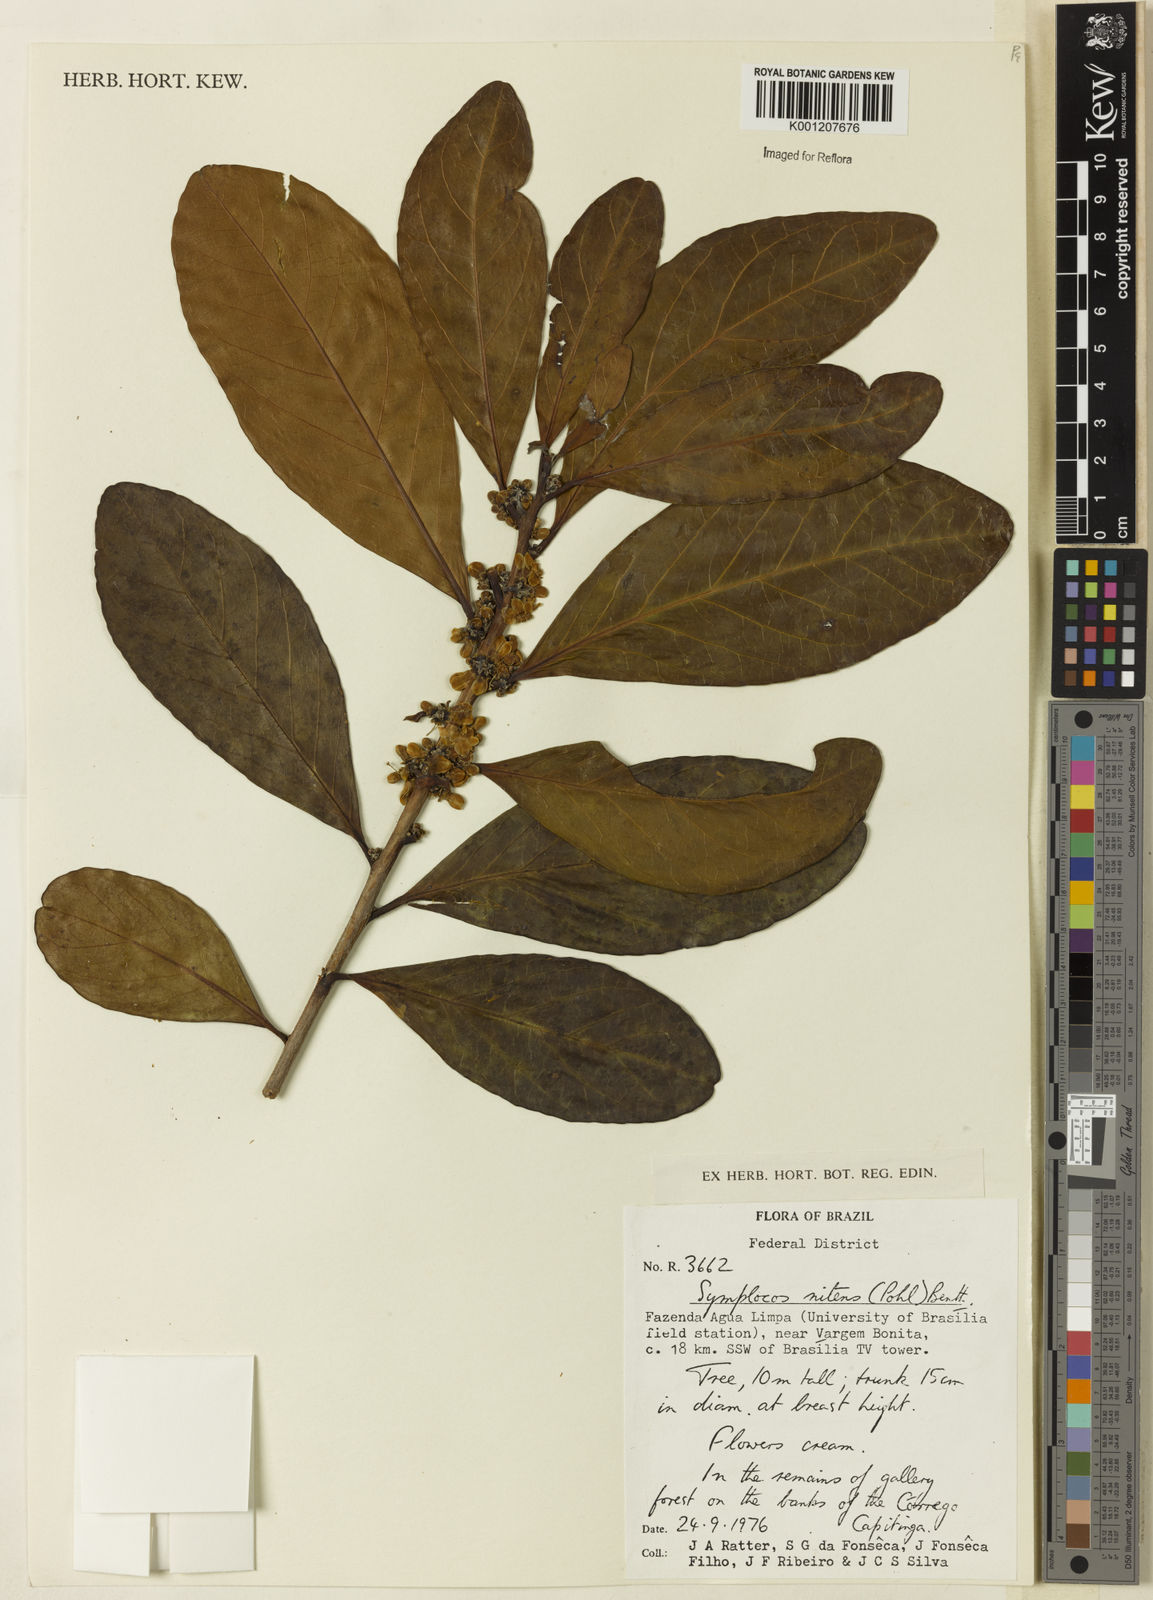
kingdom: Plantae
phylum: Tracheophyta
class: Magnoliopsida
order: Ericales
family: Symplocaceae
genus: Symplocos
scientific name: Symplocos nitens
